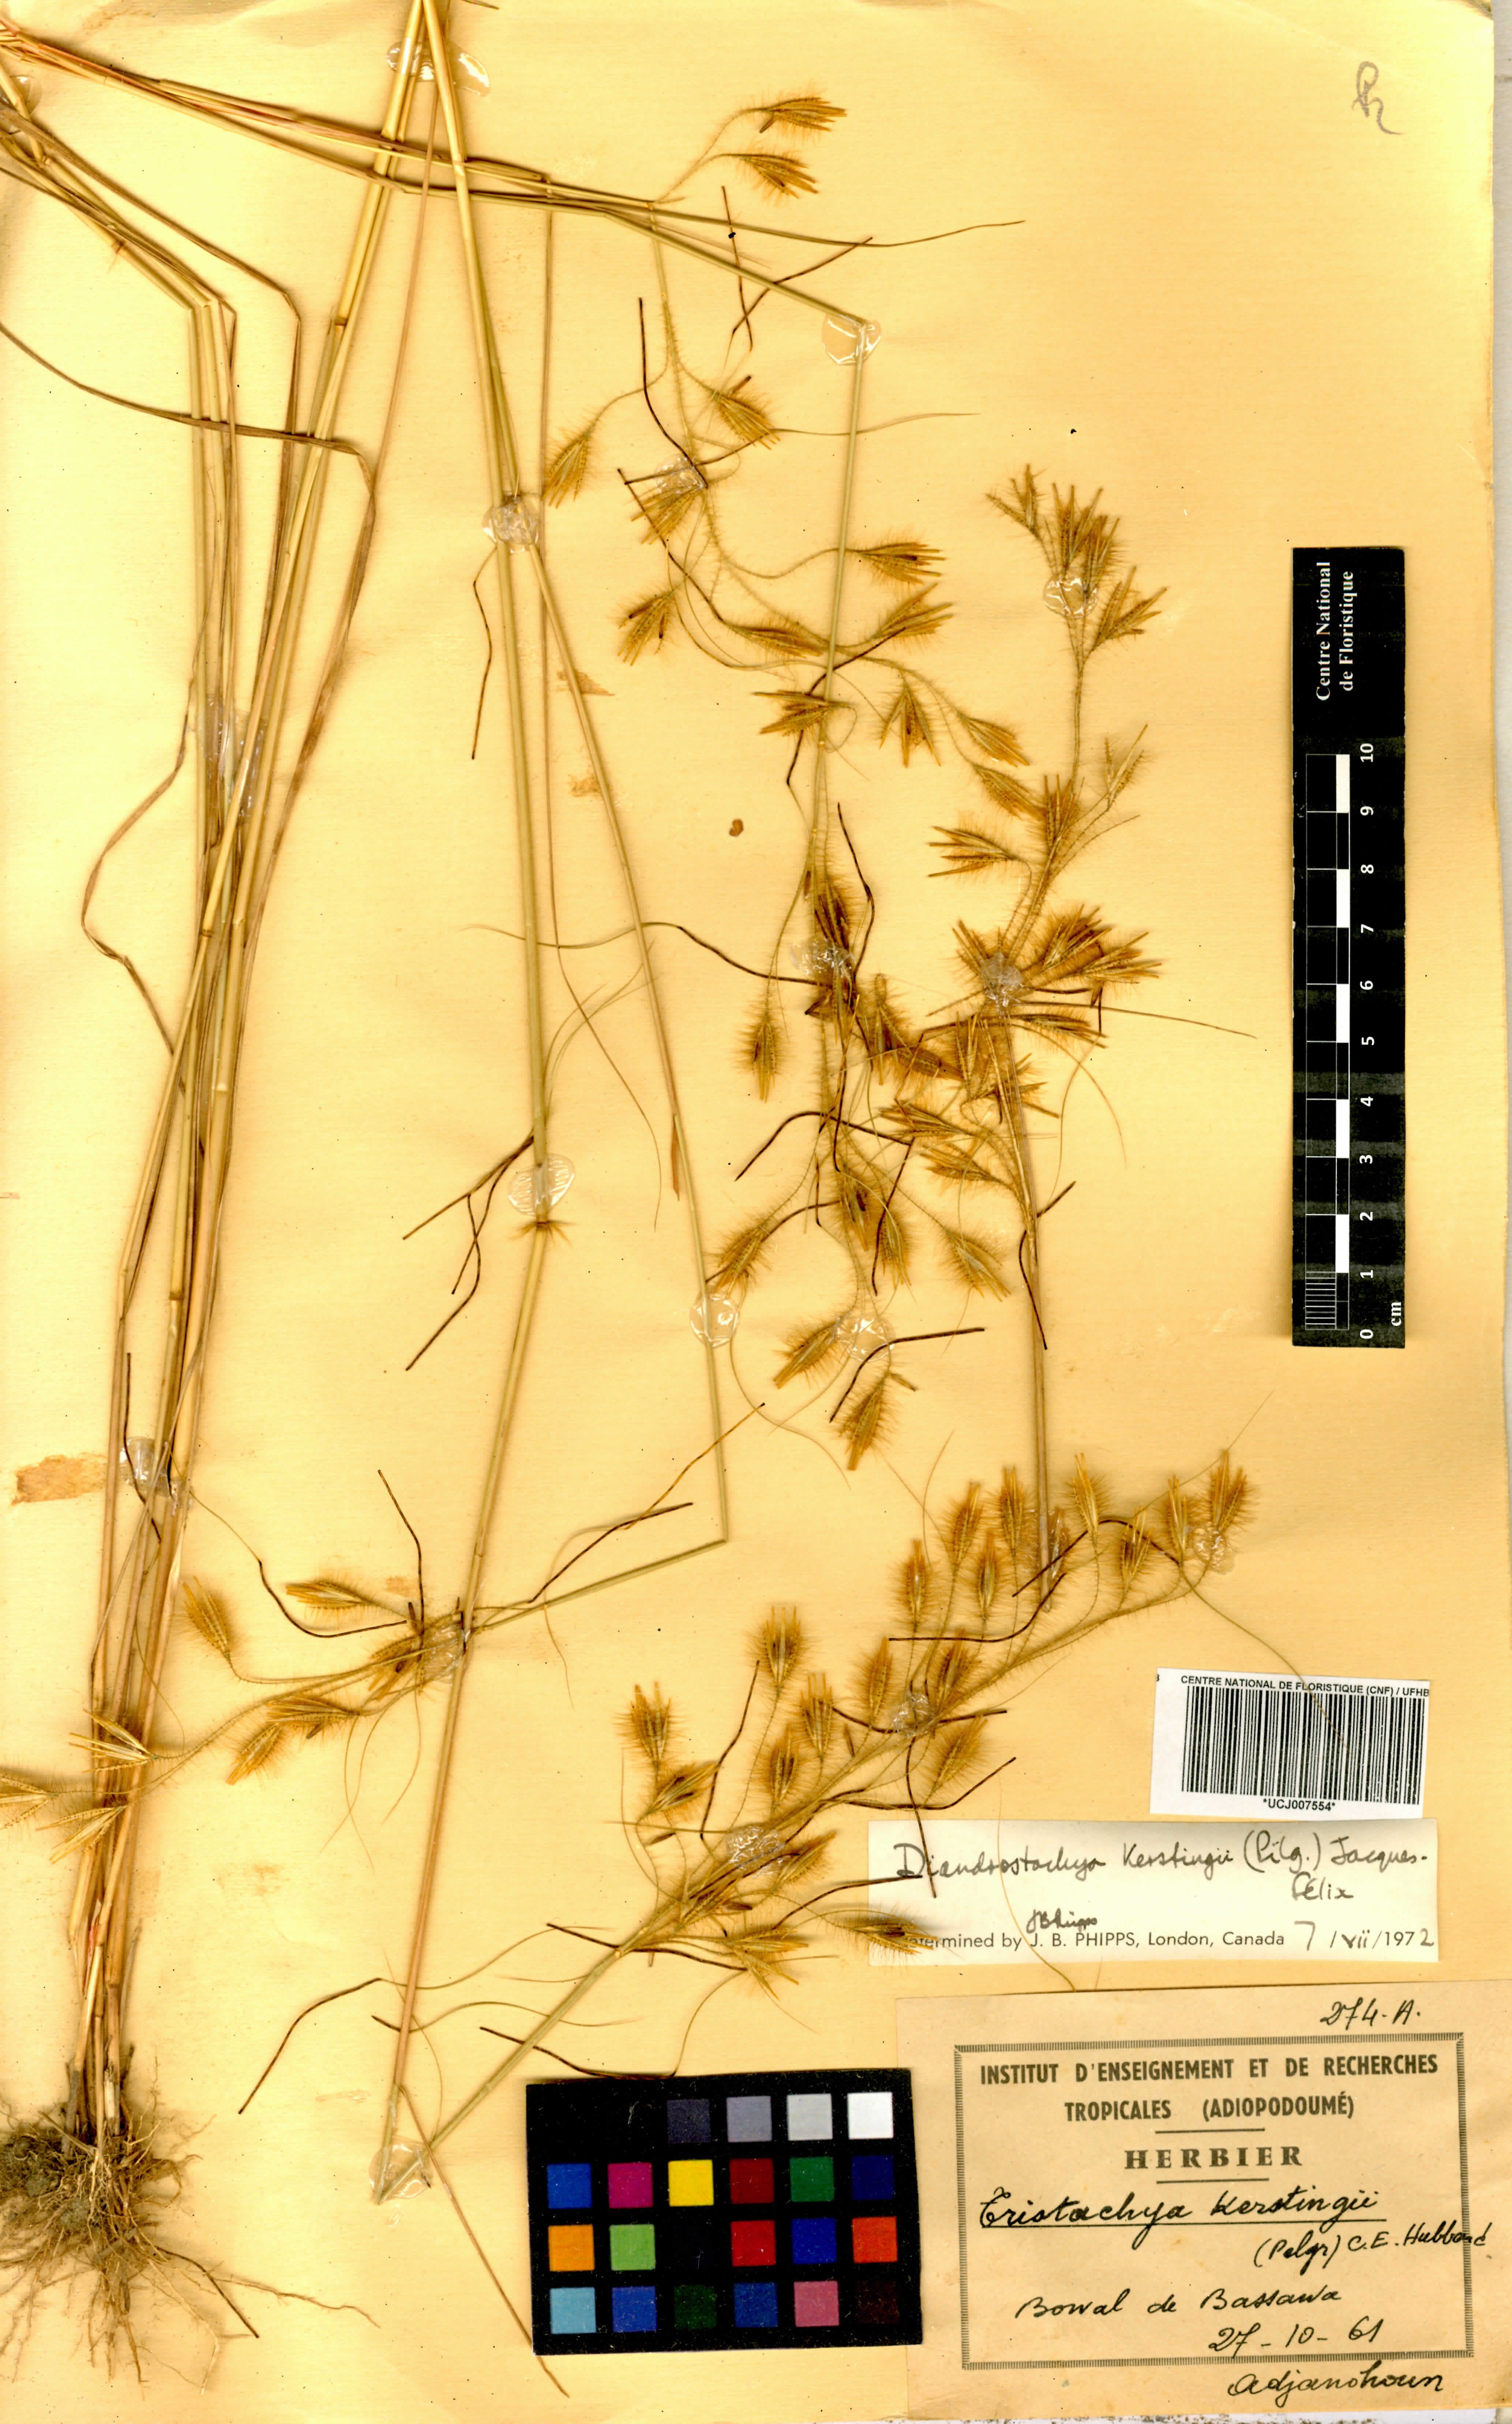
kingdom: Plantae
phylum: Tracheophyta
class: Liliopsida
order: Poales
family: Poaceae
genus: Loudetiopsis
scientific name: Loudetiopsis kerstingii
